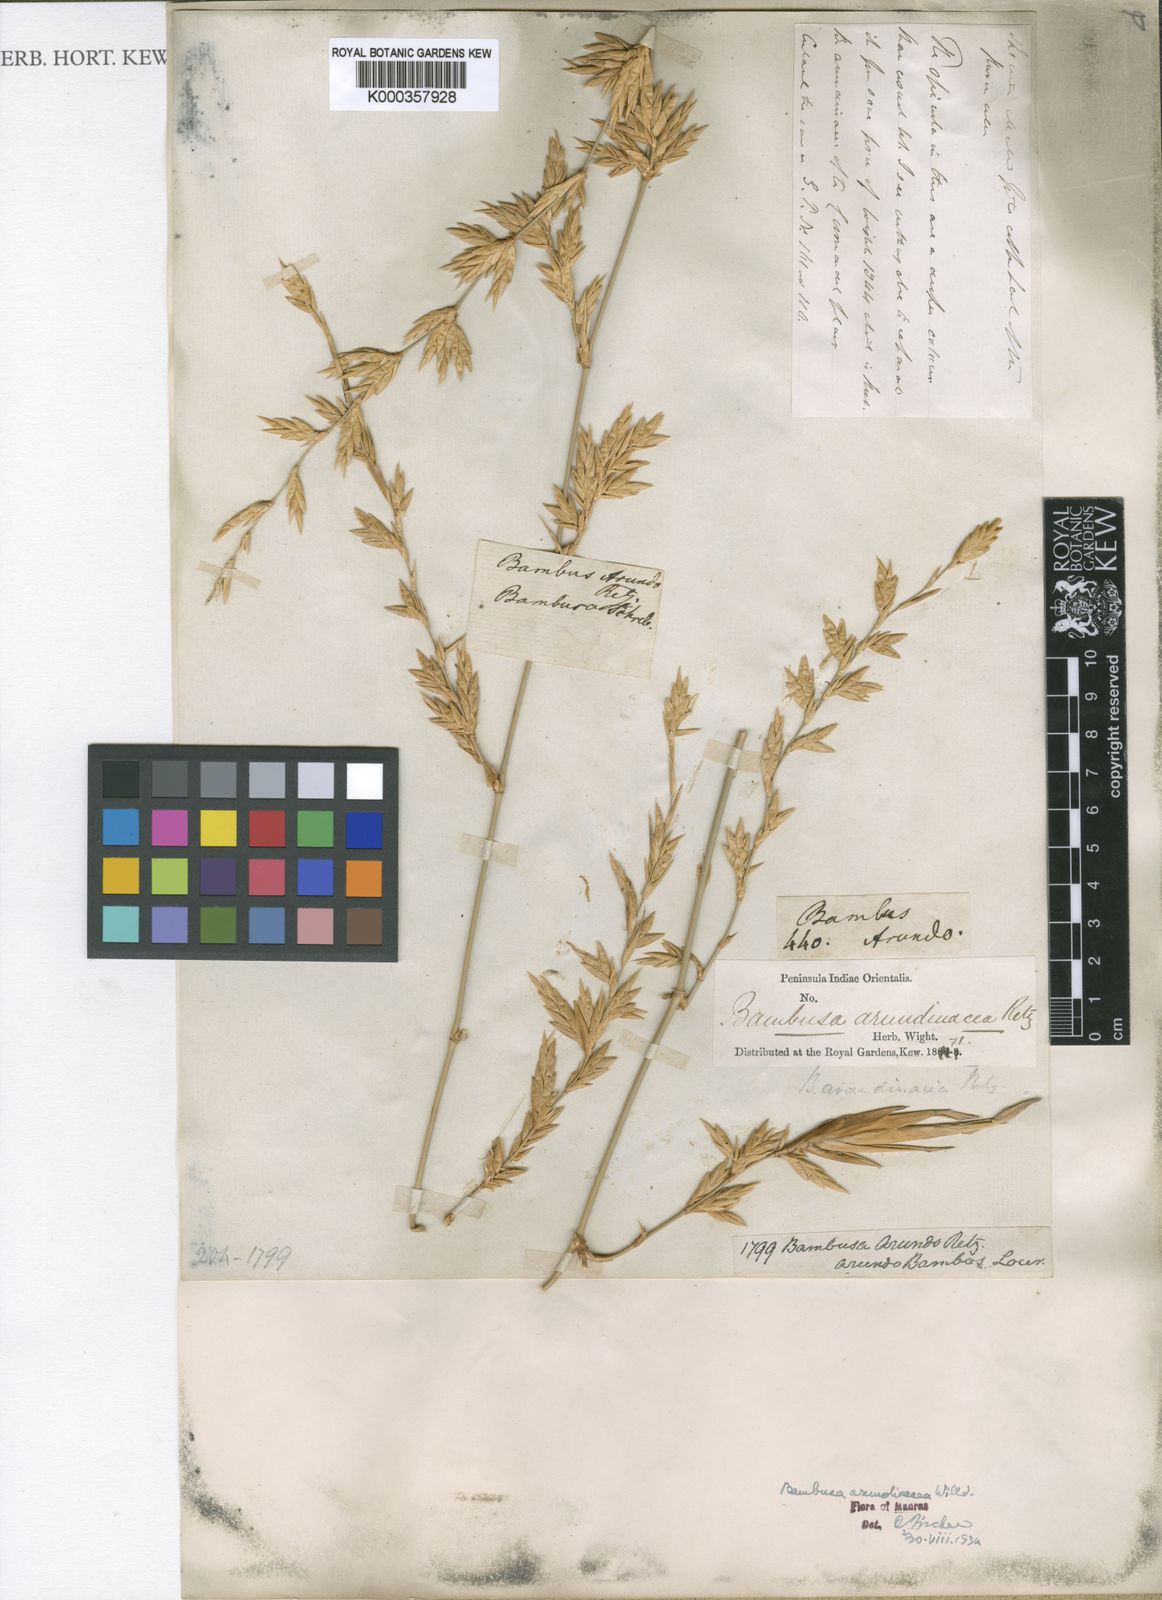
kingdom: Plantae
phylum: Tracheophyta
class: Liliopsida
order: Poales
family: Poaceae
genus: Bambusa
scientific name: Bambusa bambos
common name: Indian thorny bamboo
